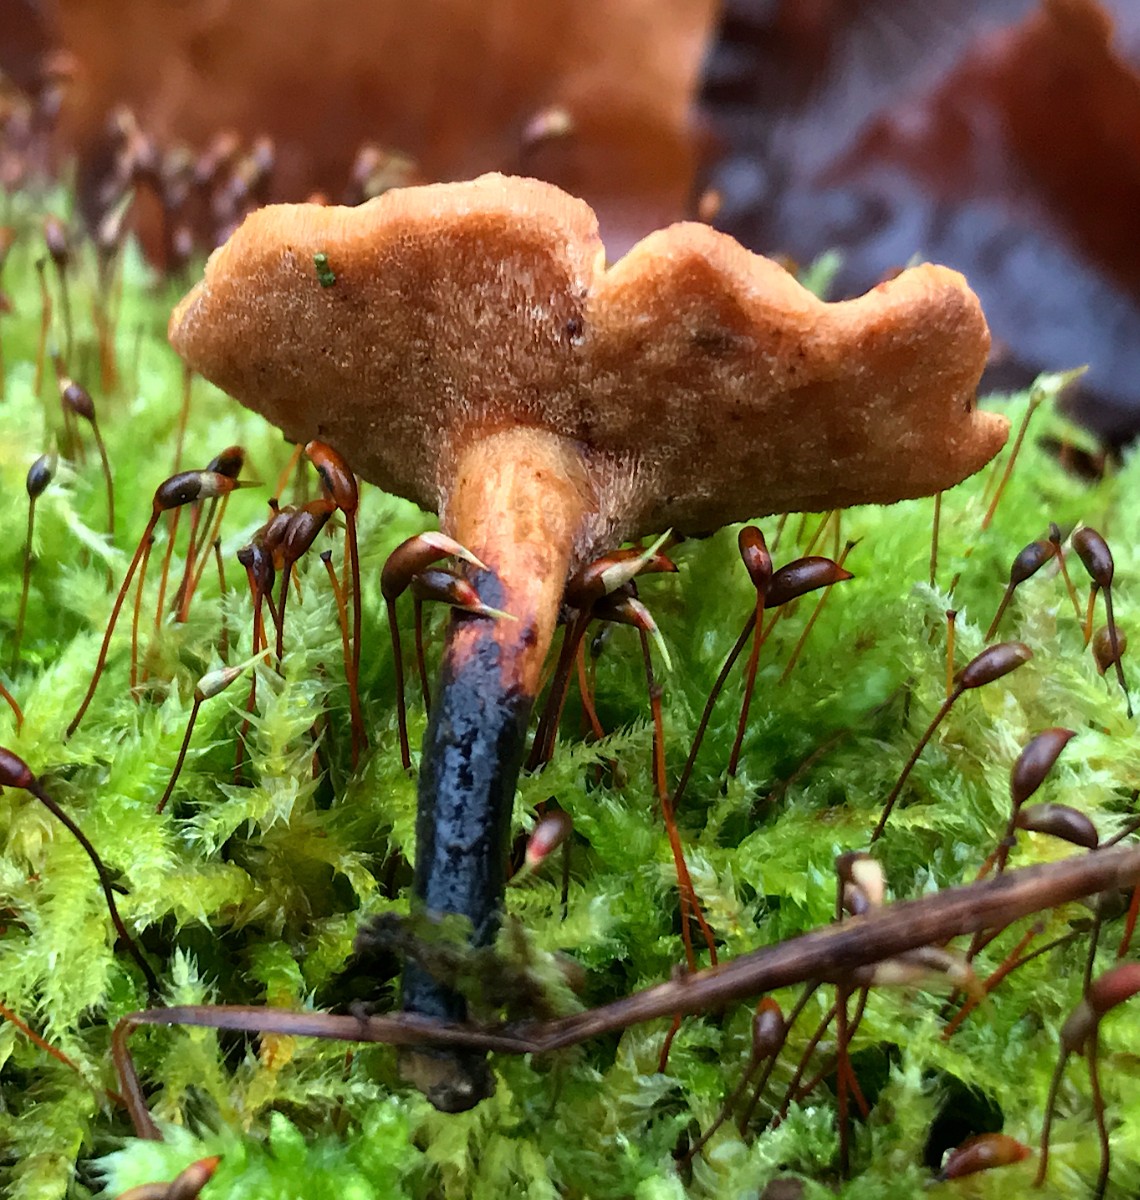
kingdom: Fungi
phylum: Basidiomycota
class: Agaricomycetes
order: Polyporales
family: Polyporaceae
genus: Cerioporus
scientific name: Cerioporus varius
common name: foranderlig stilkporesvamp
